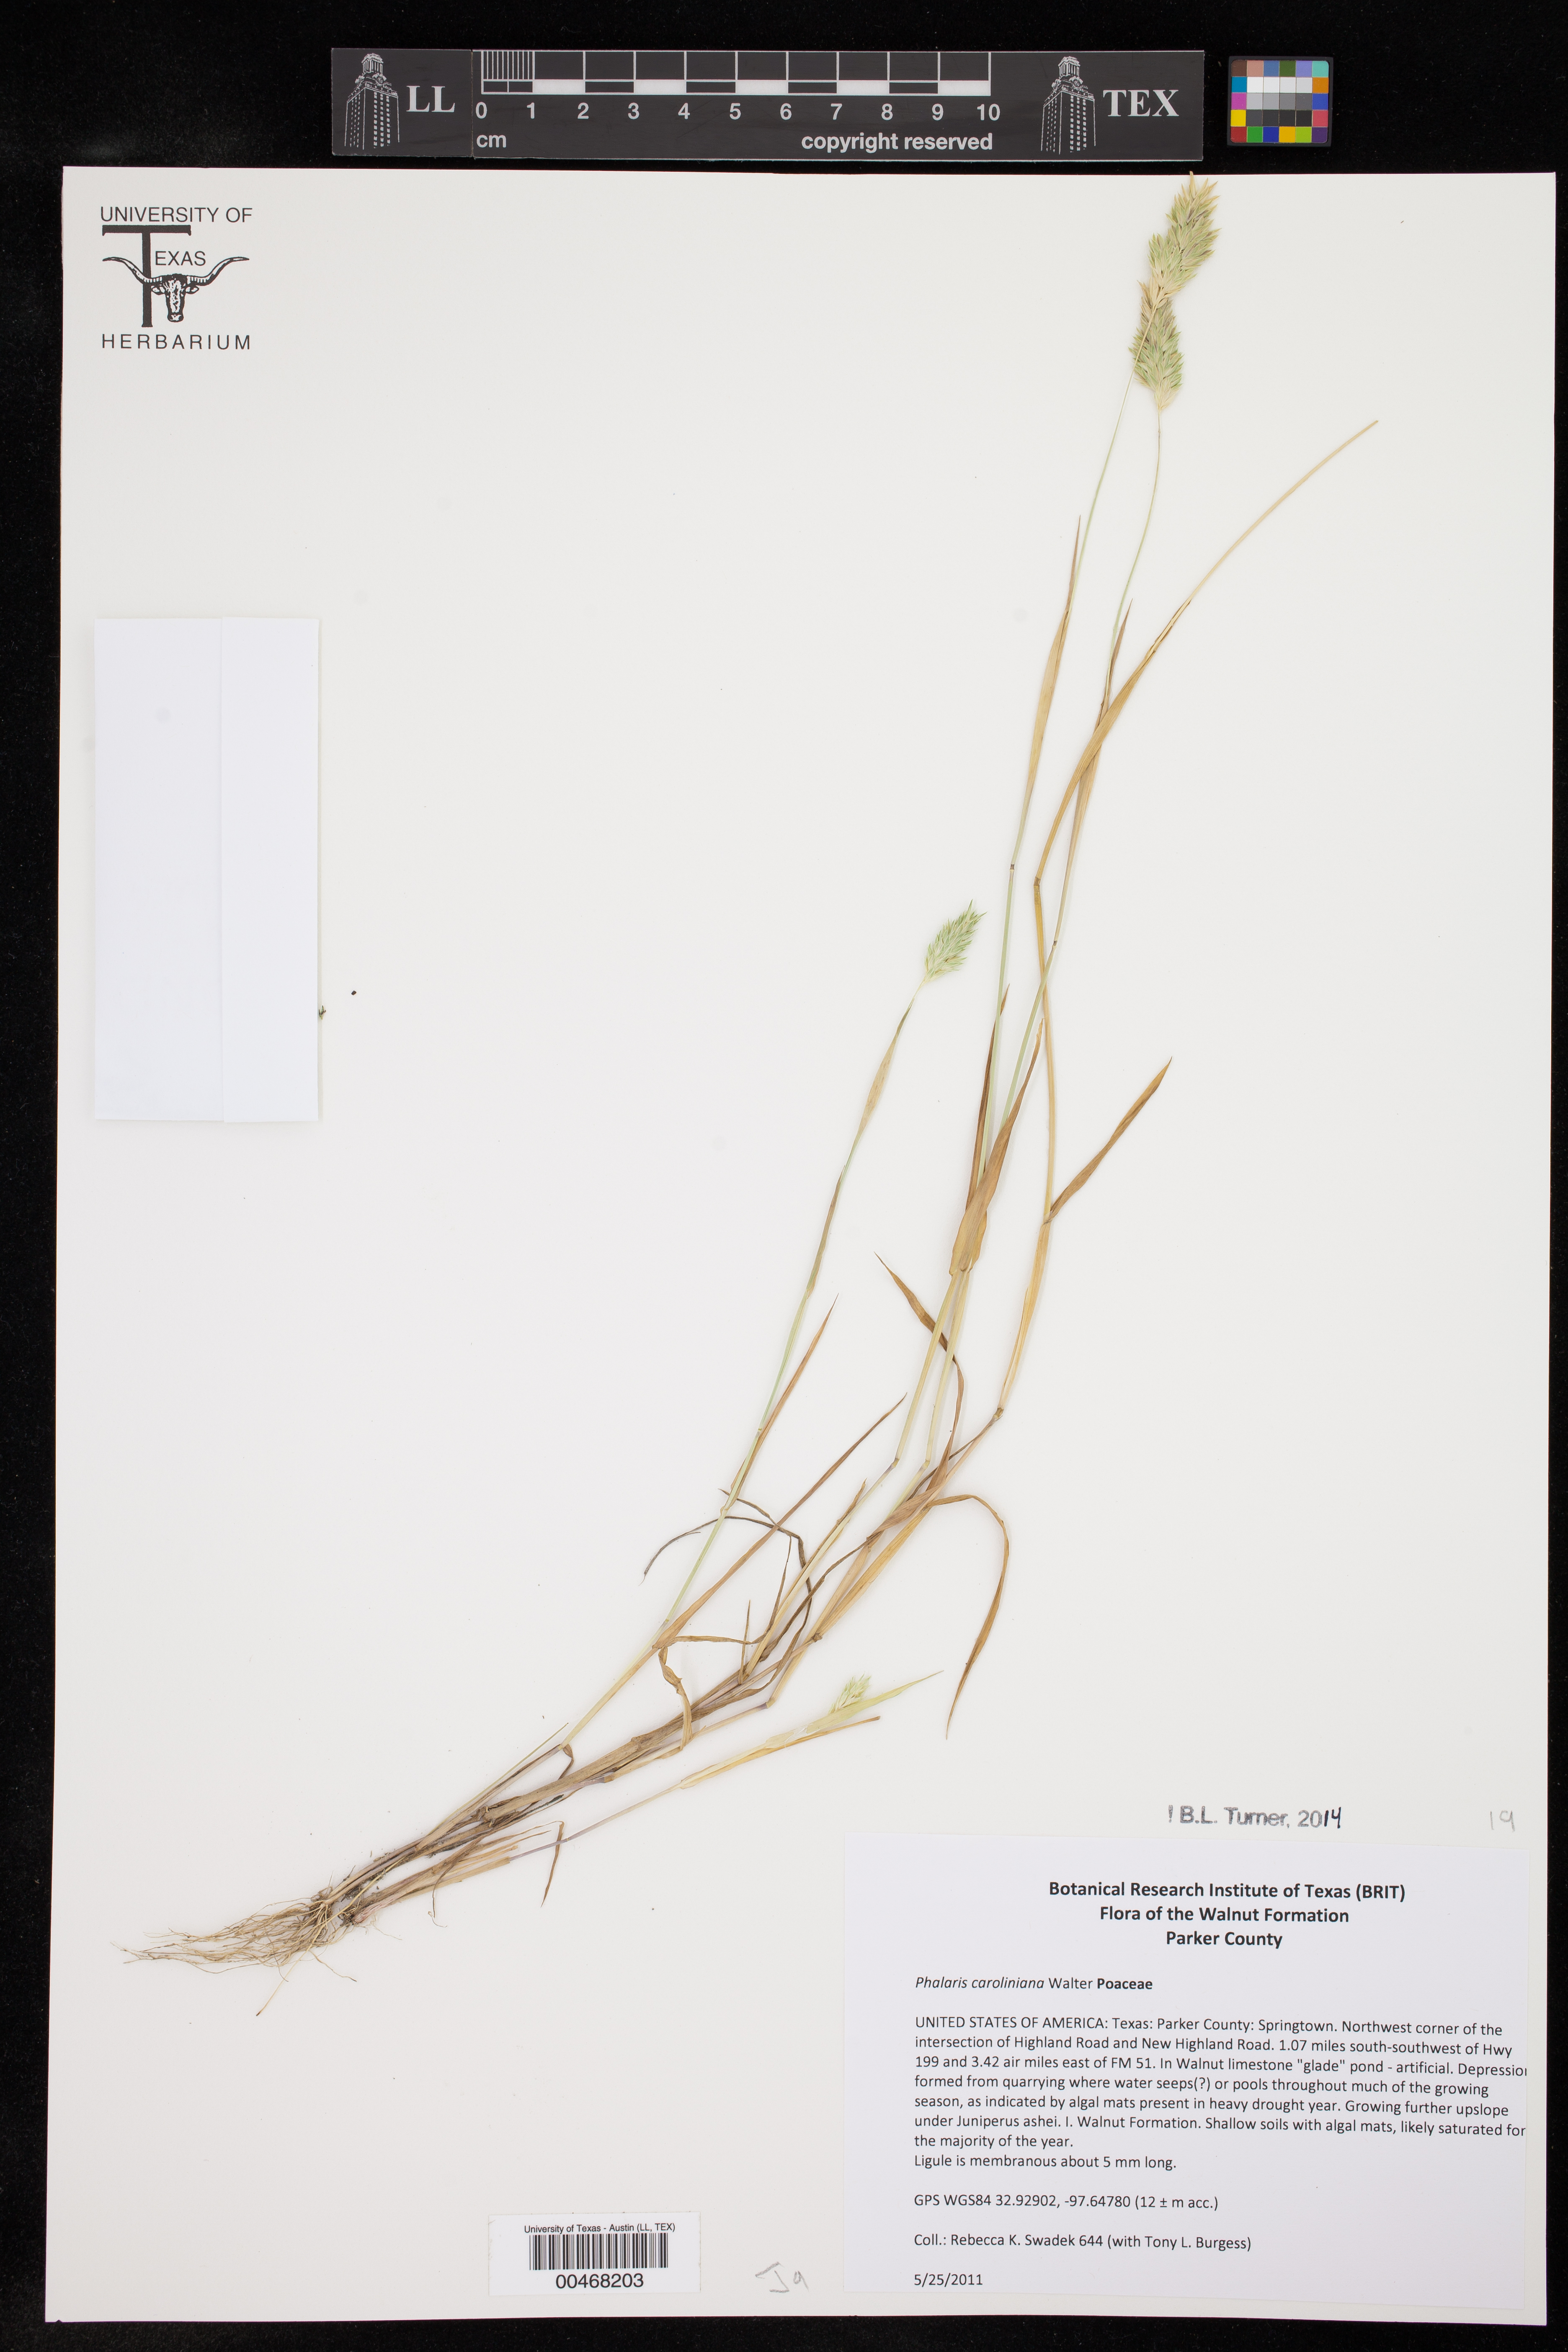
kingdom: Plantae
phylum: Tracheophyta
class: Liliopsida
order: Poales
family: Poaceae
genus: Phalaris
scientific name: Phalaris caroliniana
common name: May grass
